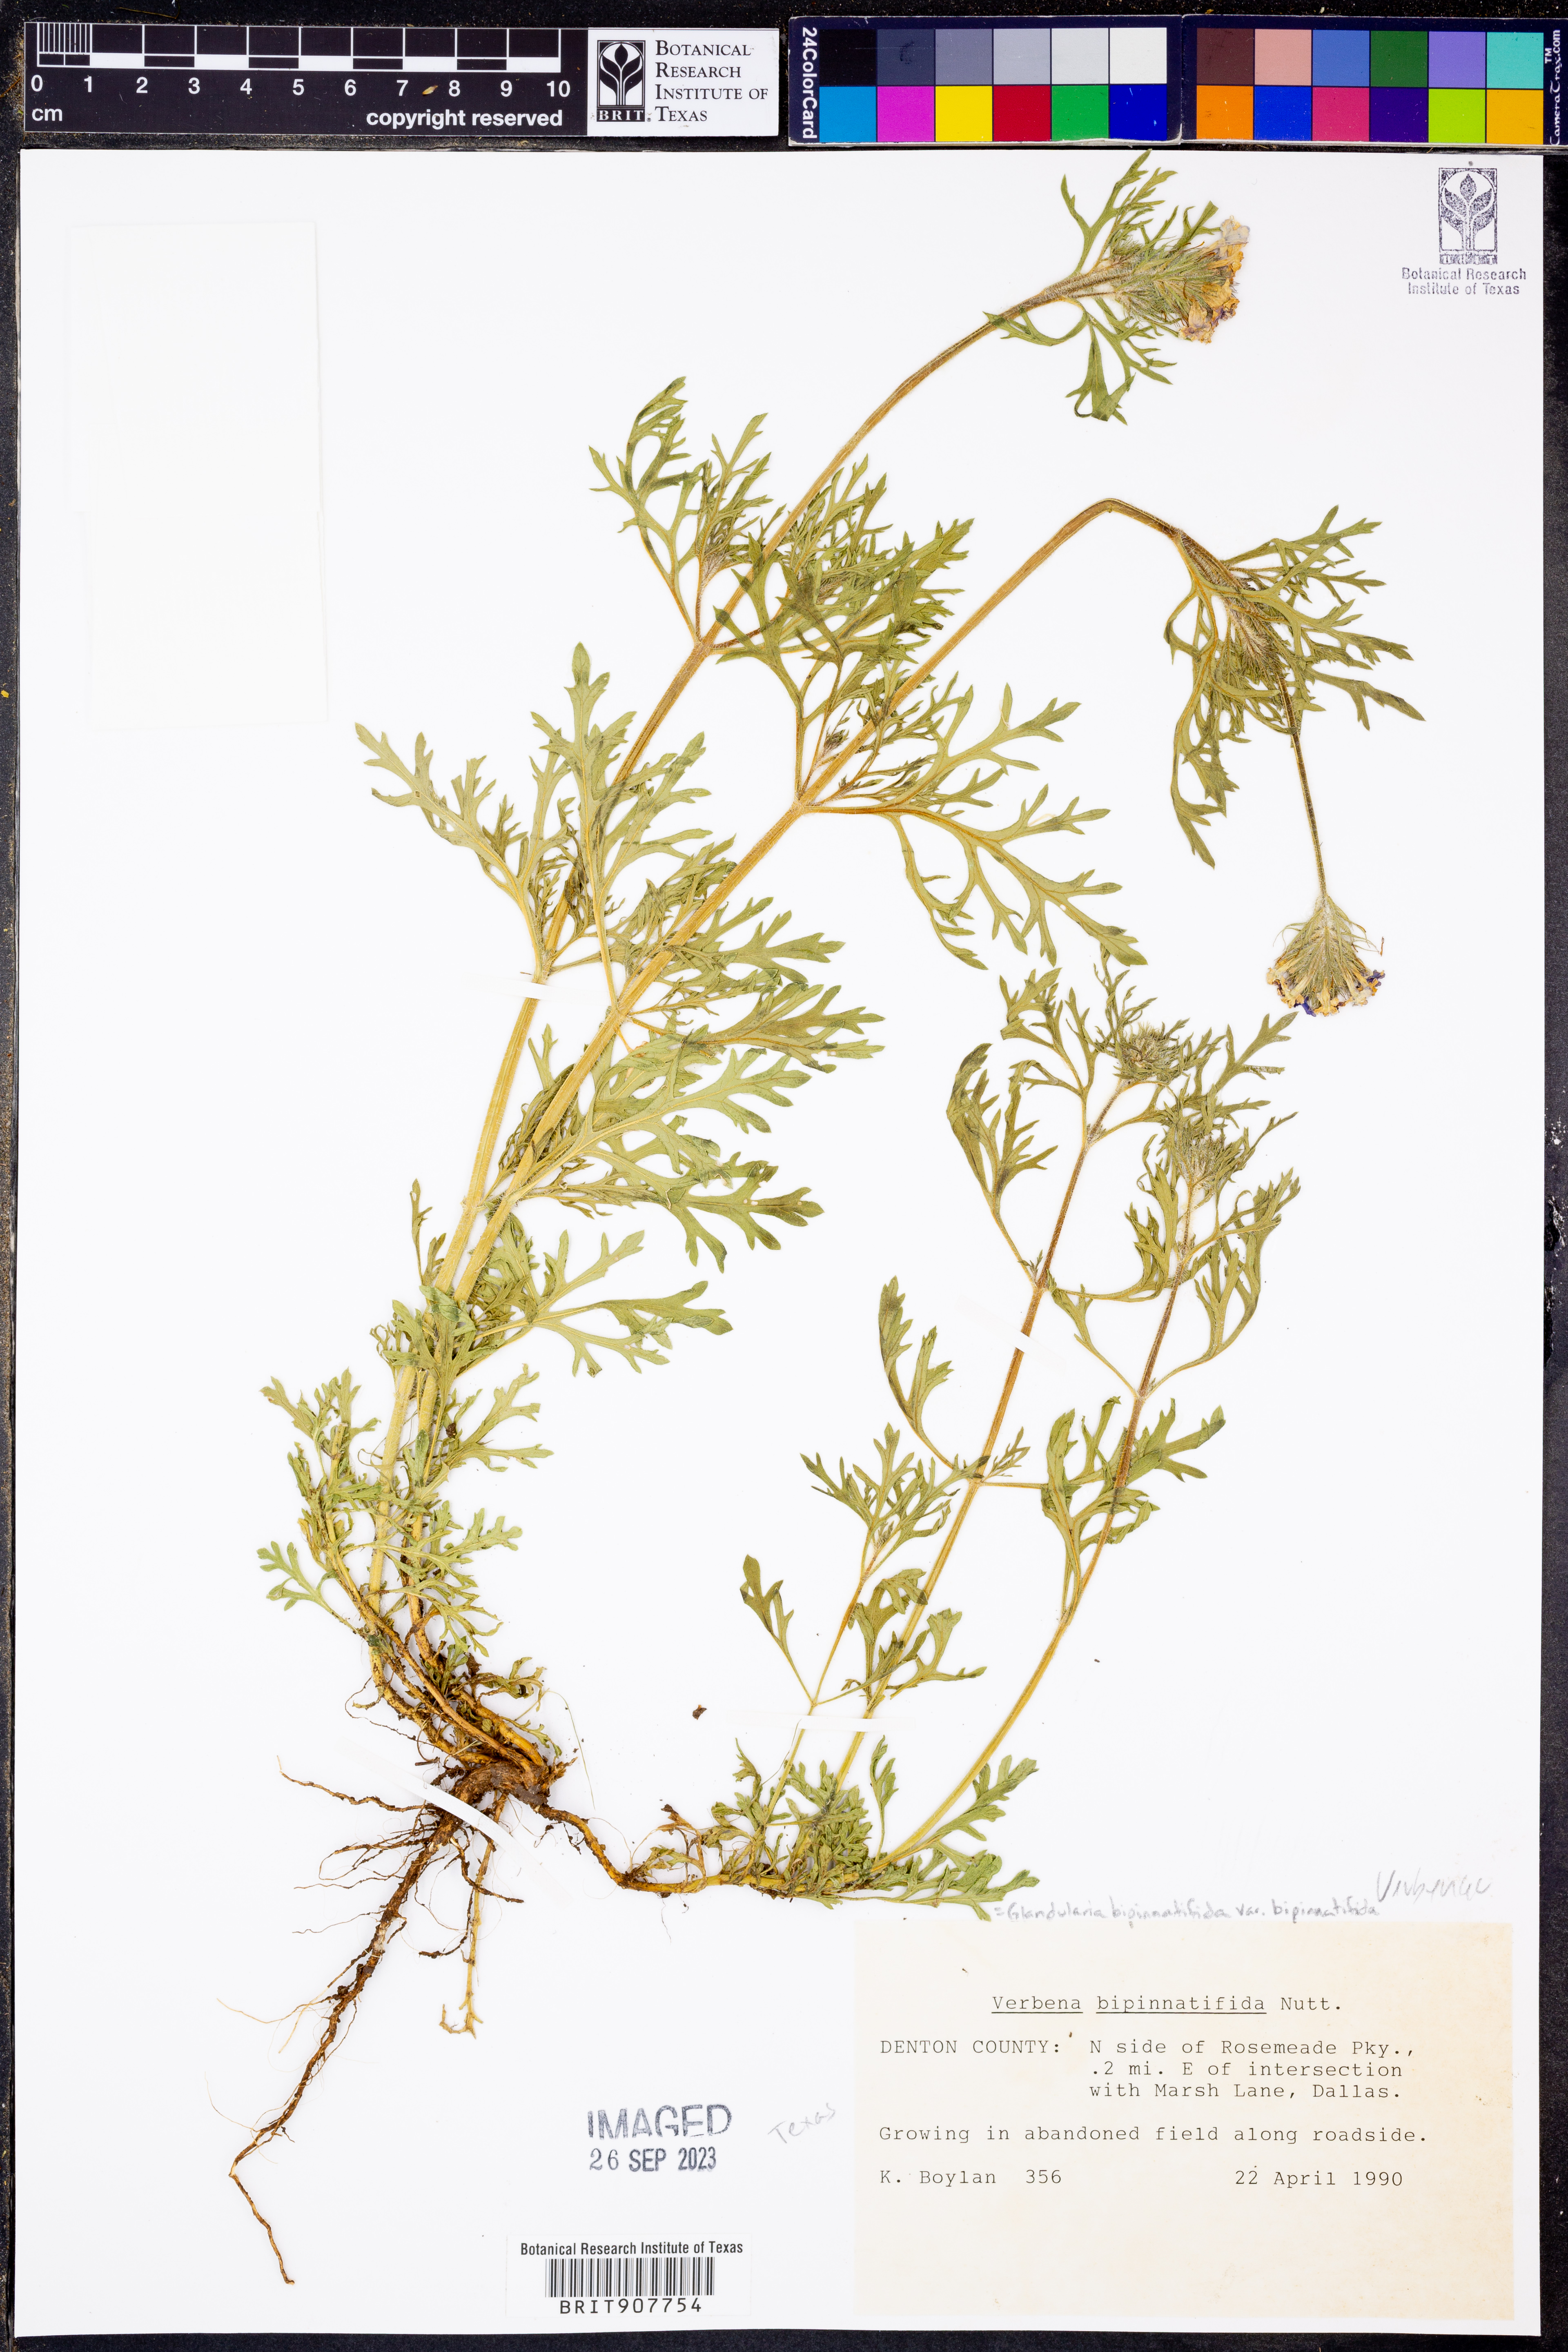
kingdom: Plantae
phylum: Tracheophyta
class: Magnoliopsida
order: Lamiales
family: Verbenaceae
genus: Verbena
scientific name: Verbena bipinnatifida
